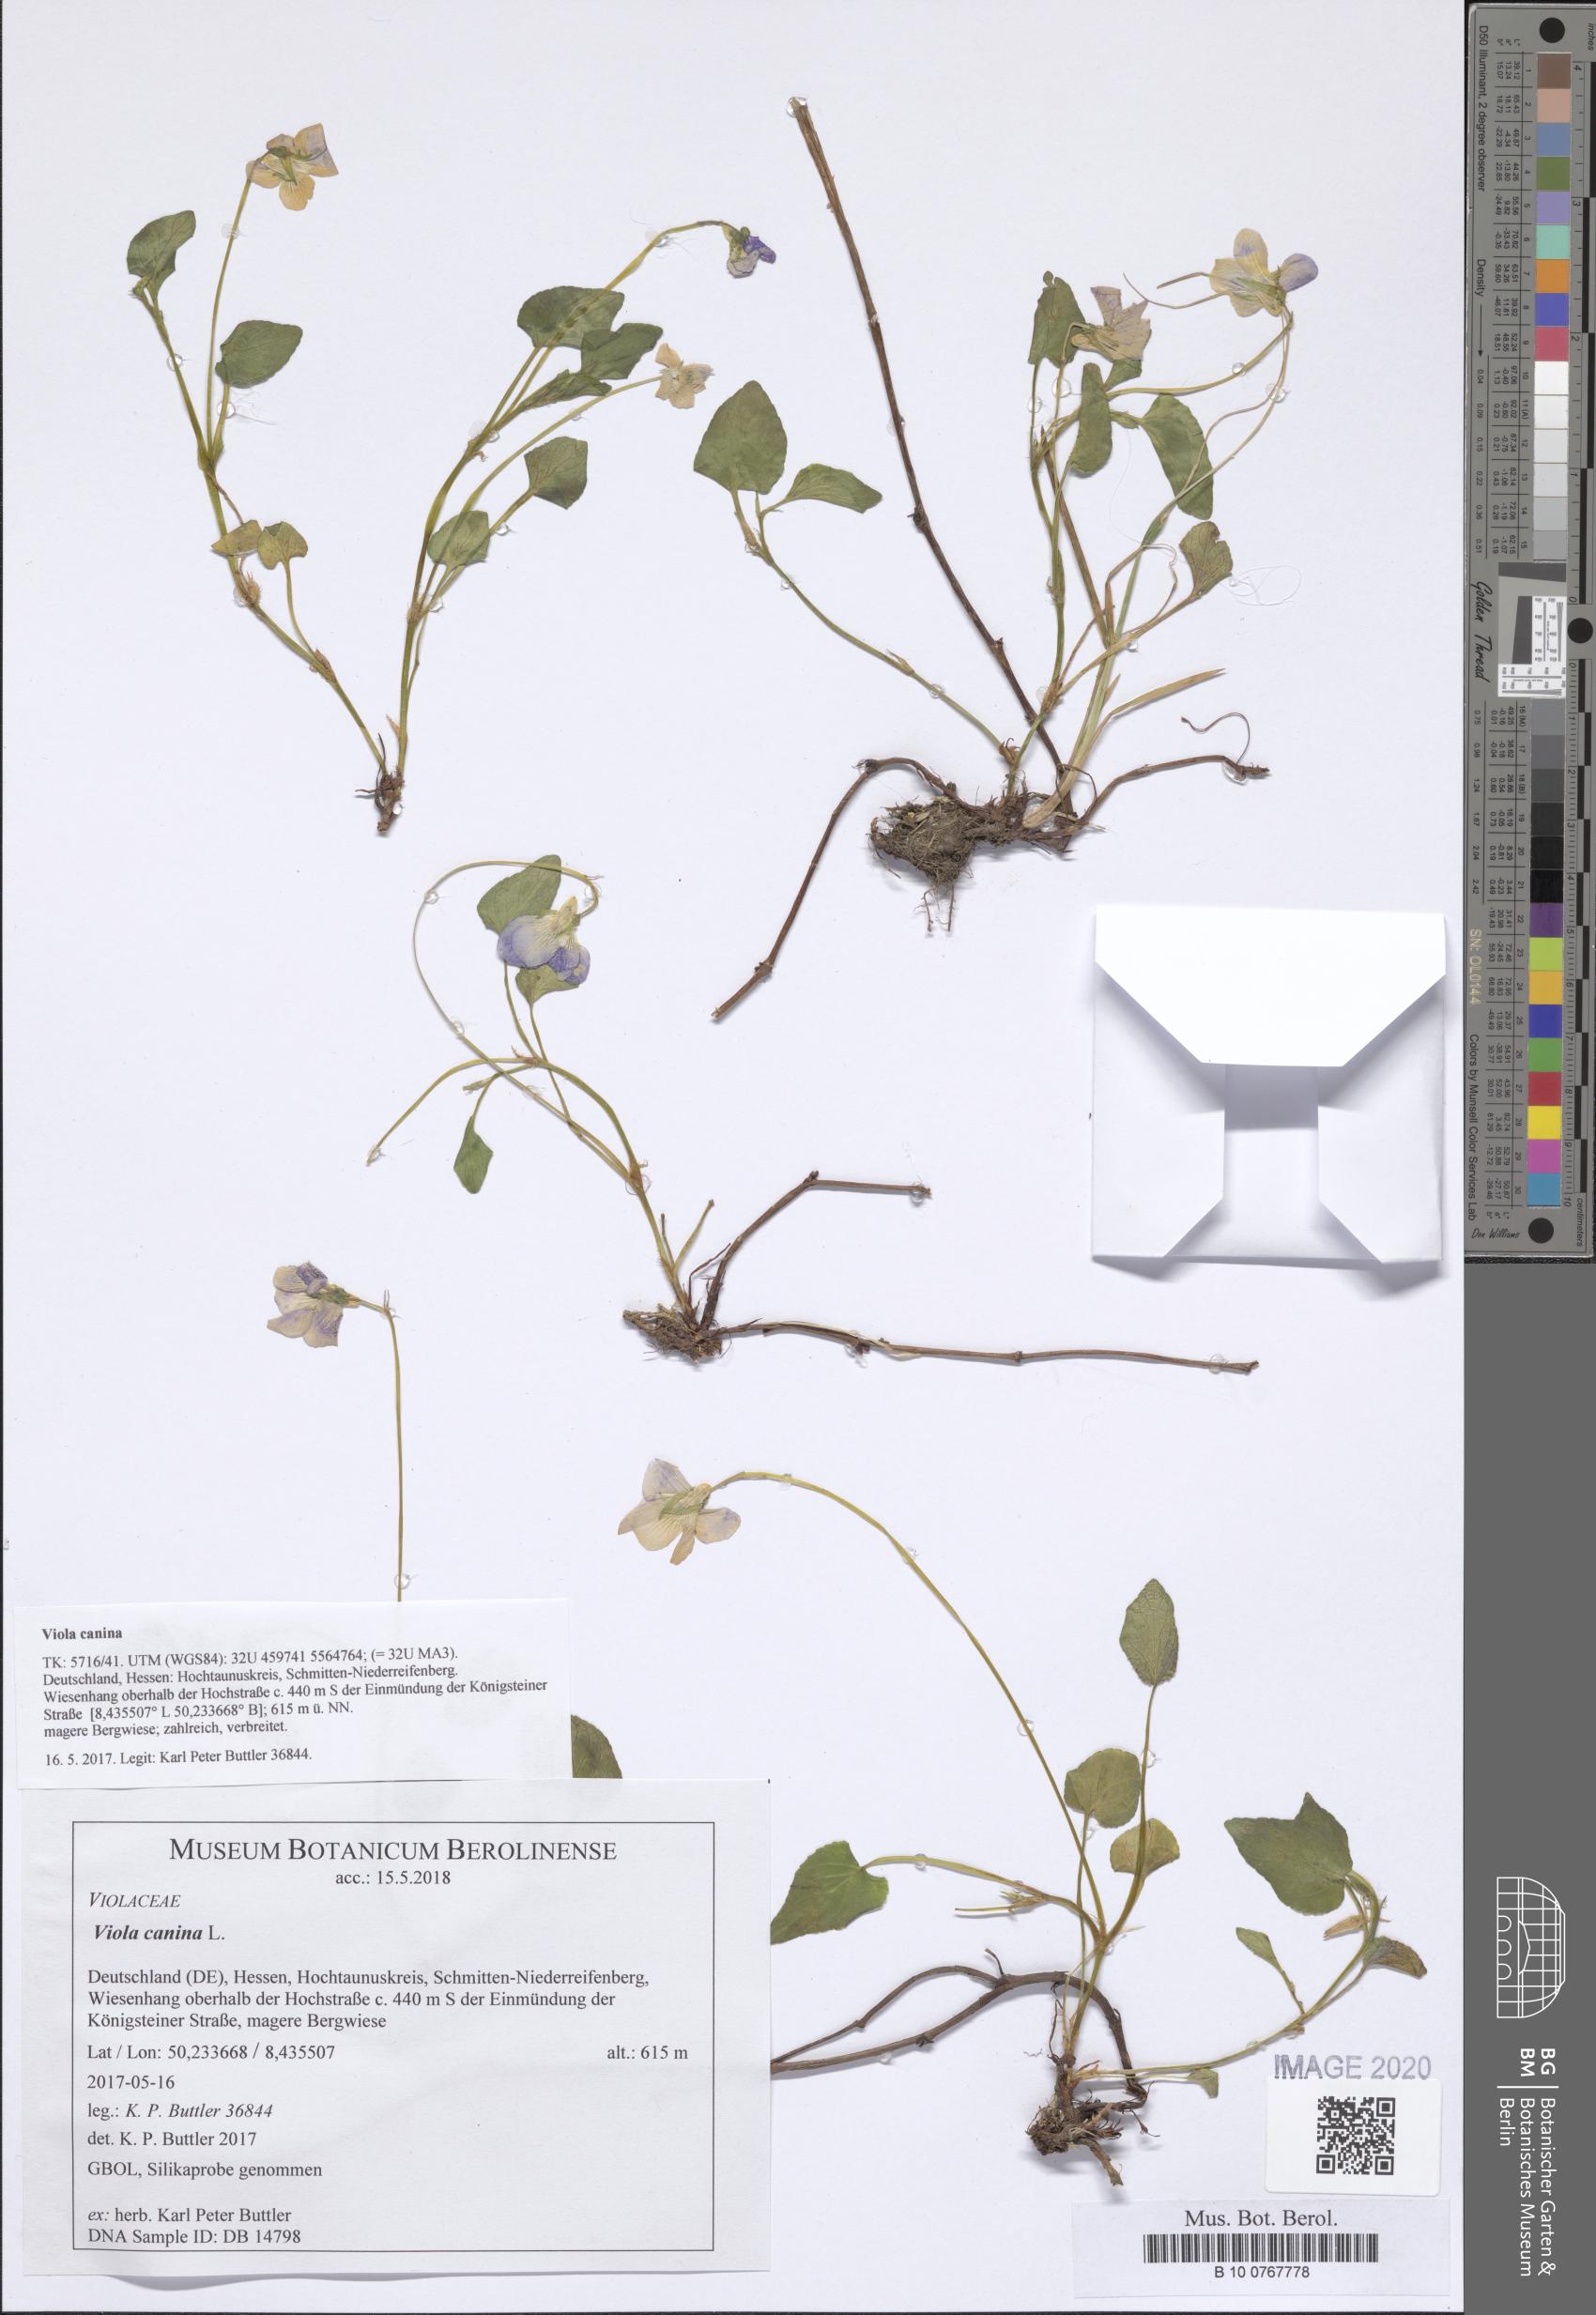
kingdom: Plantae
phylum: Tracheophyta
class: Magnoliopsida
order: Malpighiales
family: Violaceae
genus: Viola
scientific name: Viola canina
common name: Heath dog-violet
